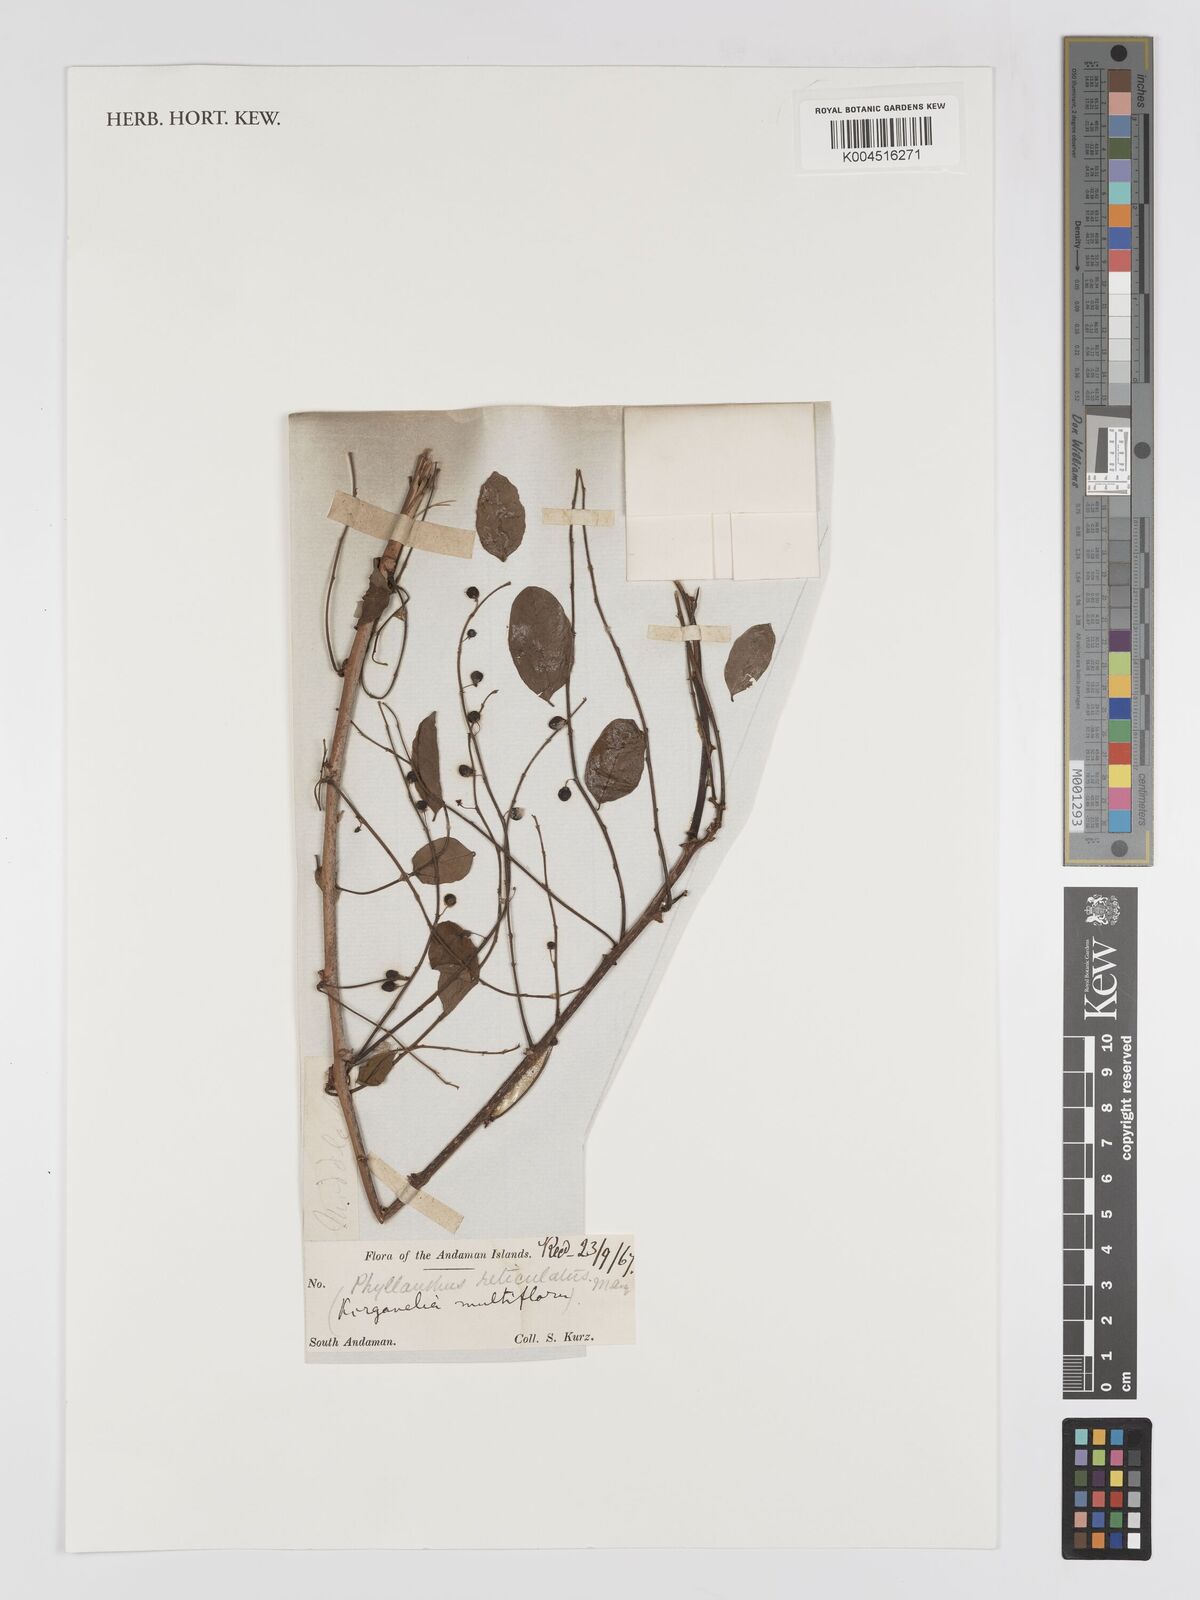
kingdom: Plantae
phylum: Tracheophyta
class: Magnoliopsida
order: Malpighiales
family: Phyllanthaceae
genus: Phyllanthus
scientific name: Phyllanthus reticulatus
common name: Potato bush
